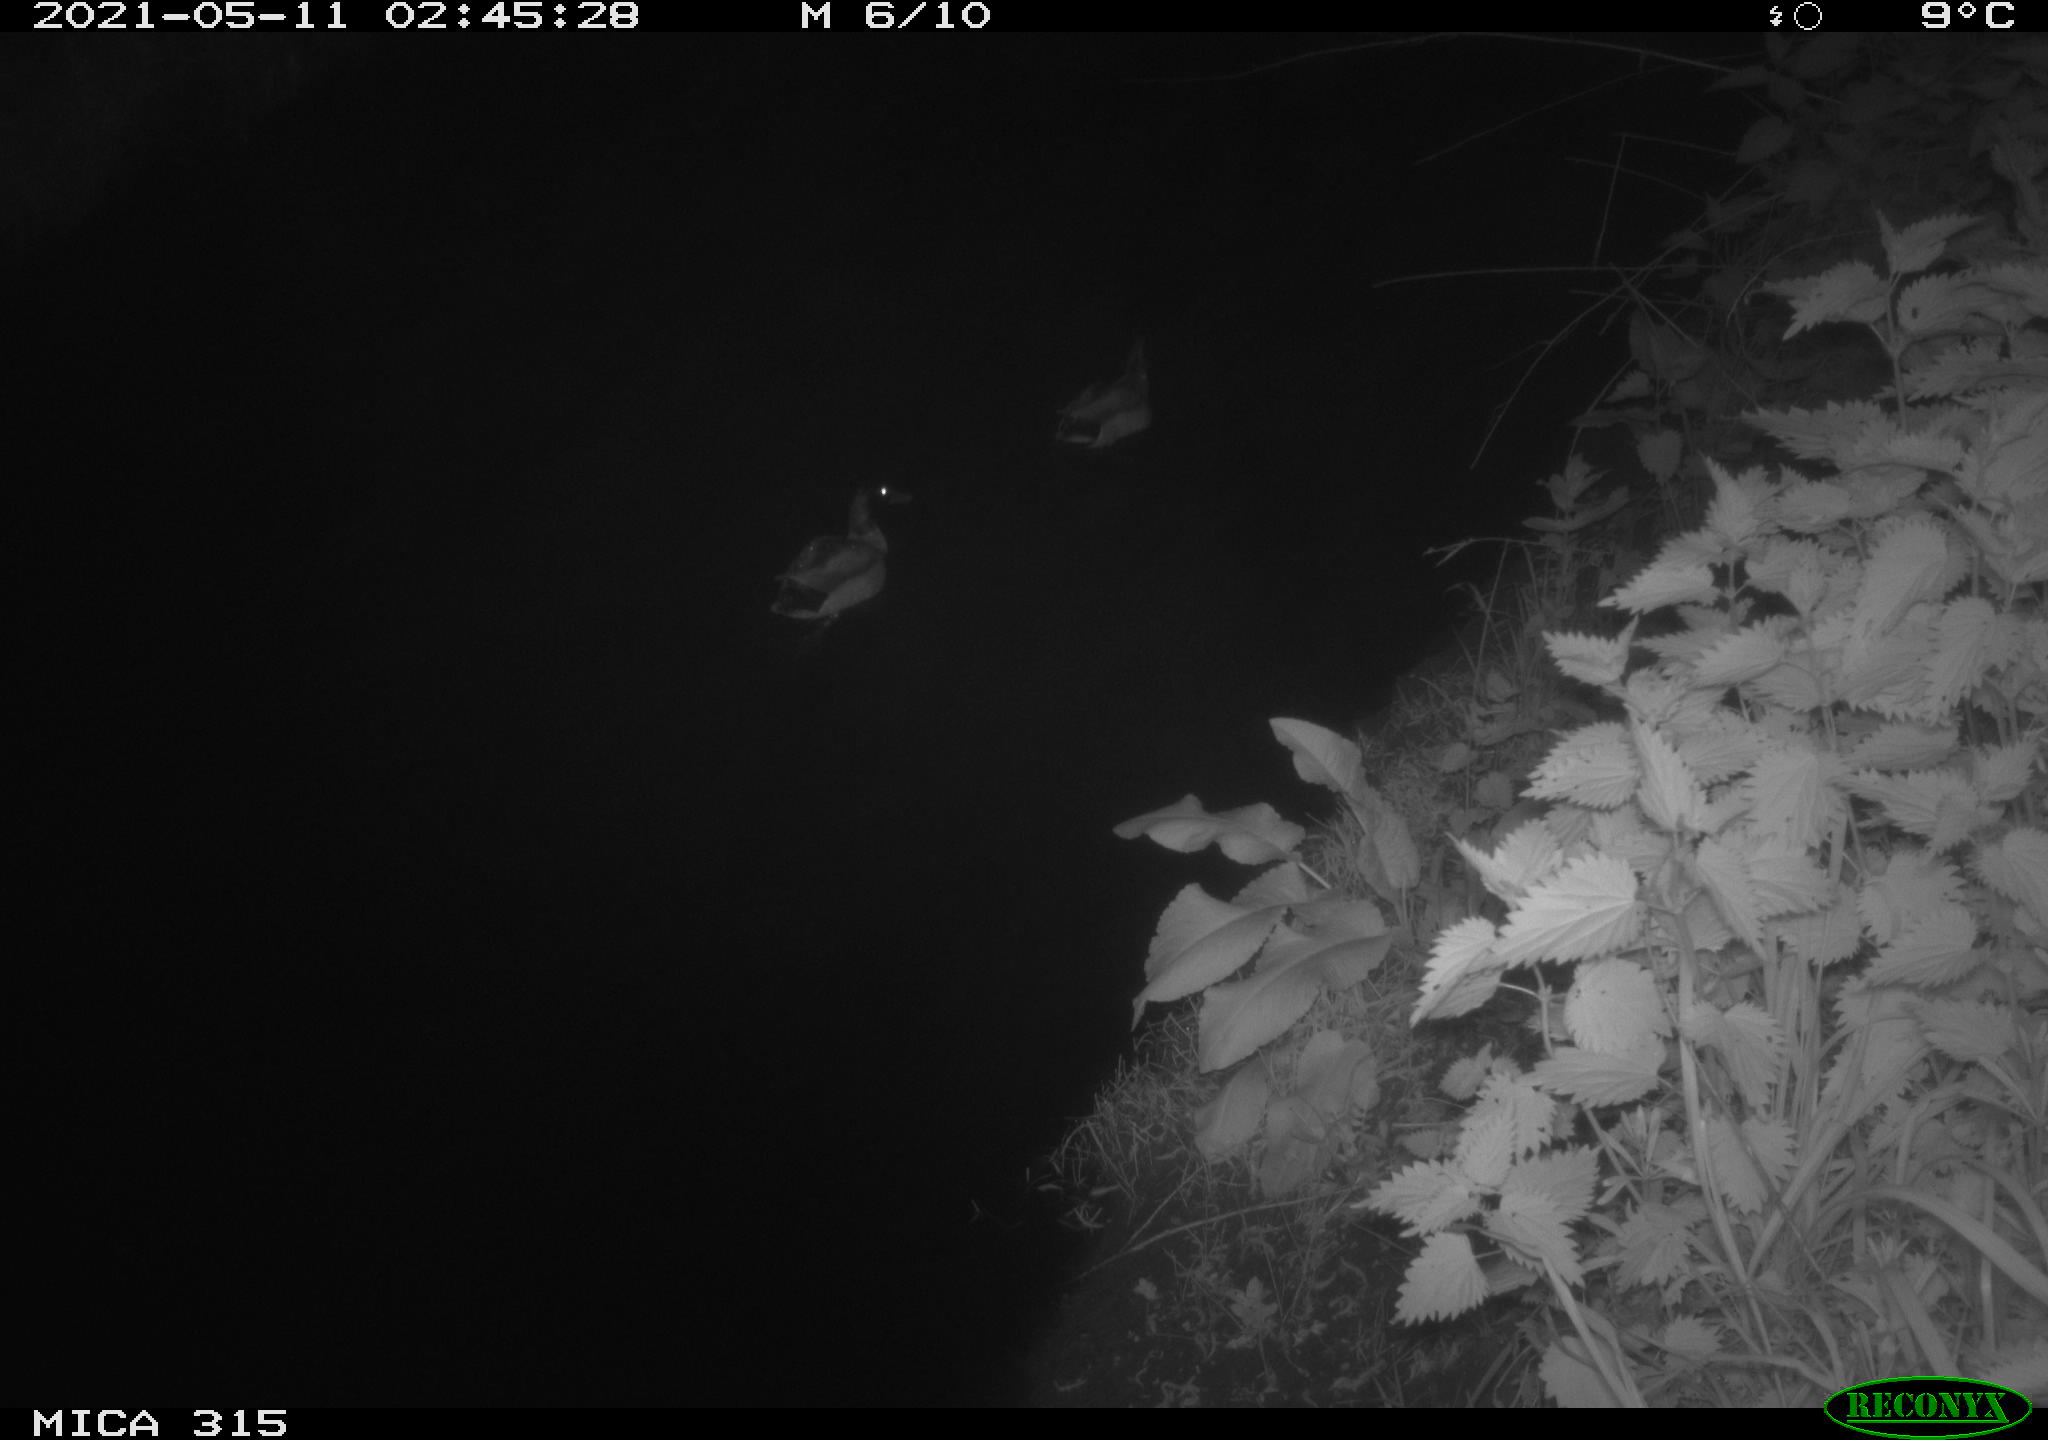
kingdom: Animalia
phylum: Chordata
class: Aves
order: Anseriformes
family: Anatidae
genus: Anas
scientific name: Anas
